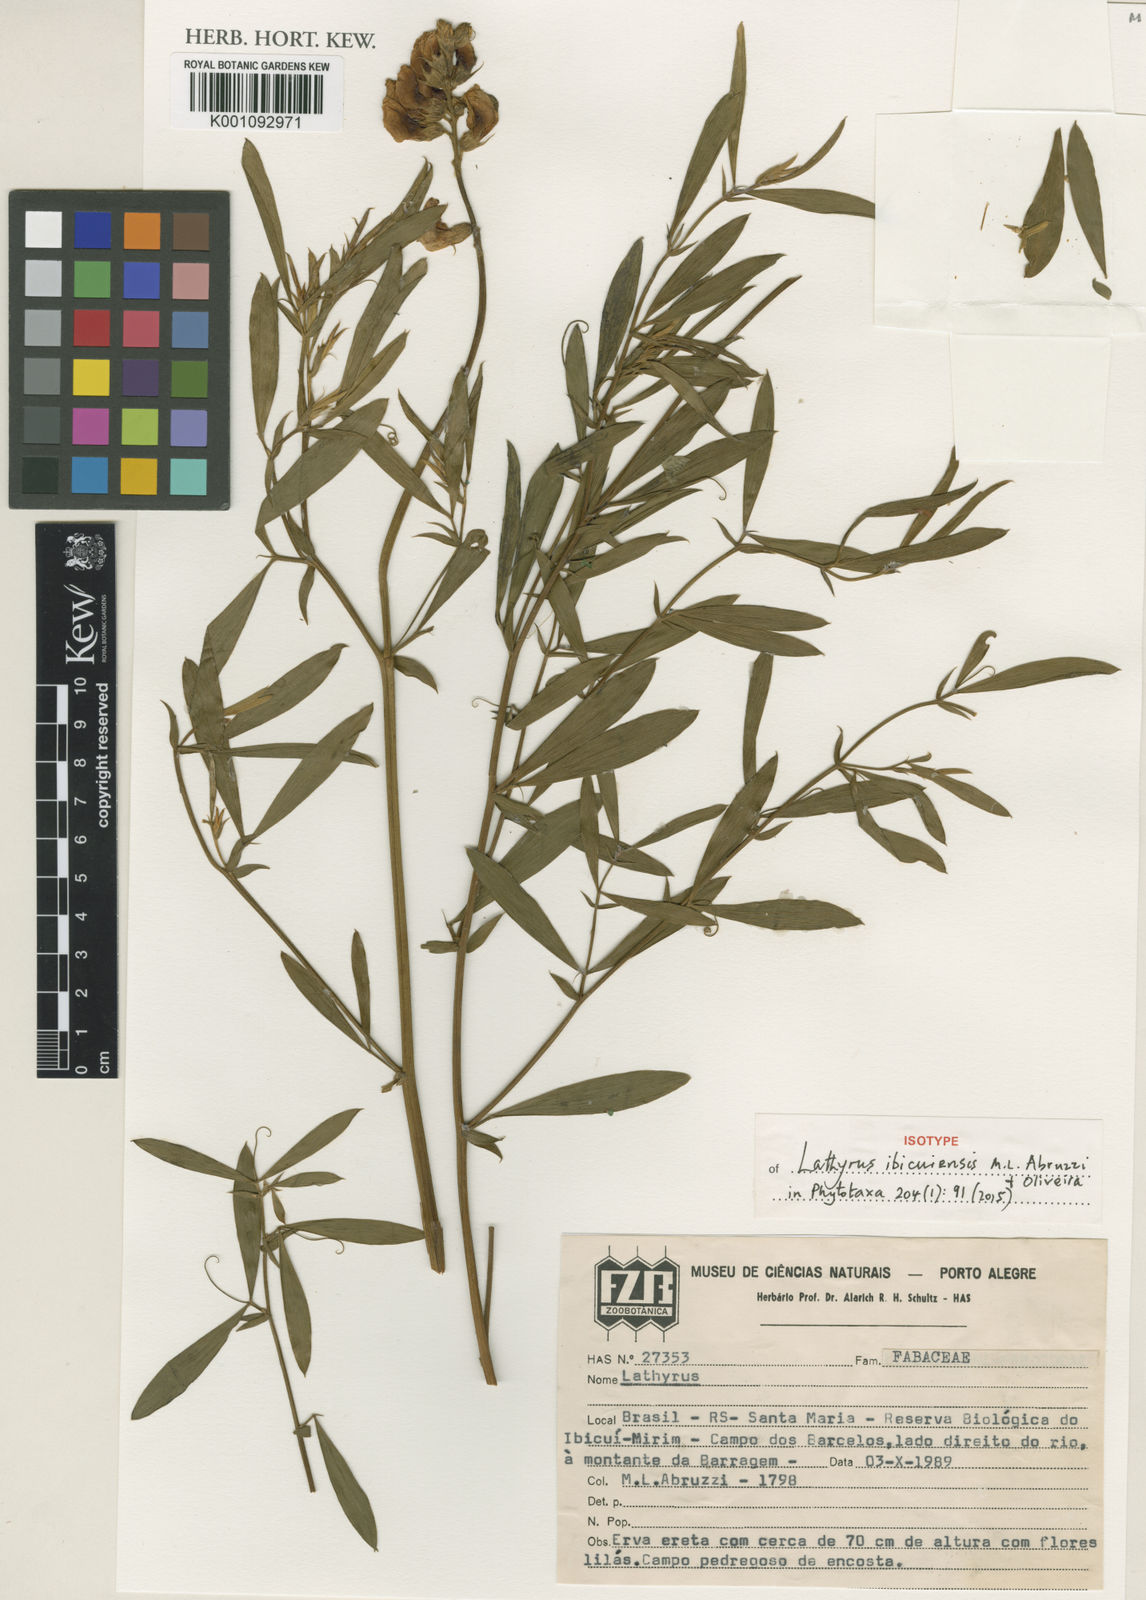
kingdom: Plantae
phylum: Tracheophyta
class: Magnoliopsida
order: Fabales
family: Fabaceae
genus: Lathyrus
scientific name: Lathyrus nitens
